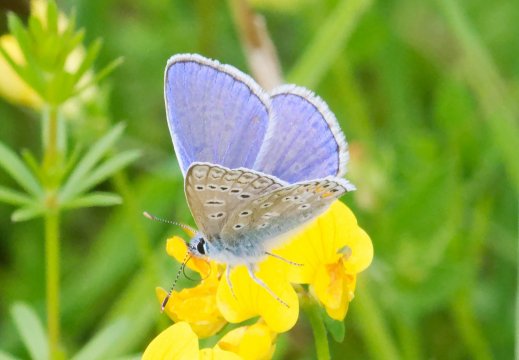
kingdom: Animalia
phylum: Arthropoda
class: Insecta
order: Lepidoptera
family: Lycaenidae
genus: Polyommatus
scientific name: Polyommatus icarus
